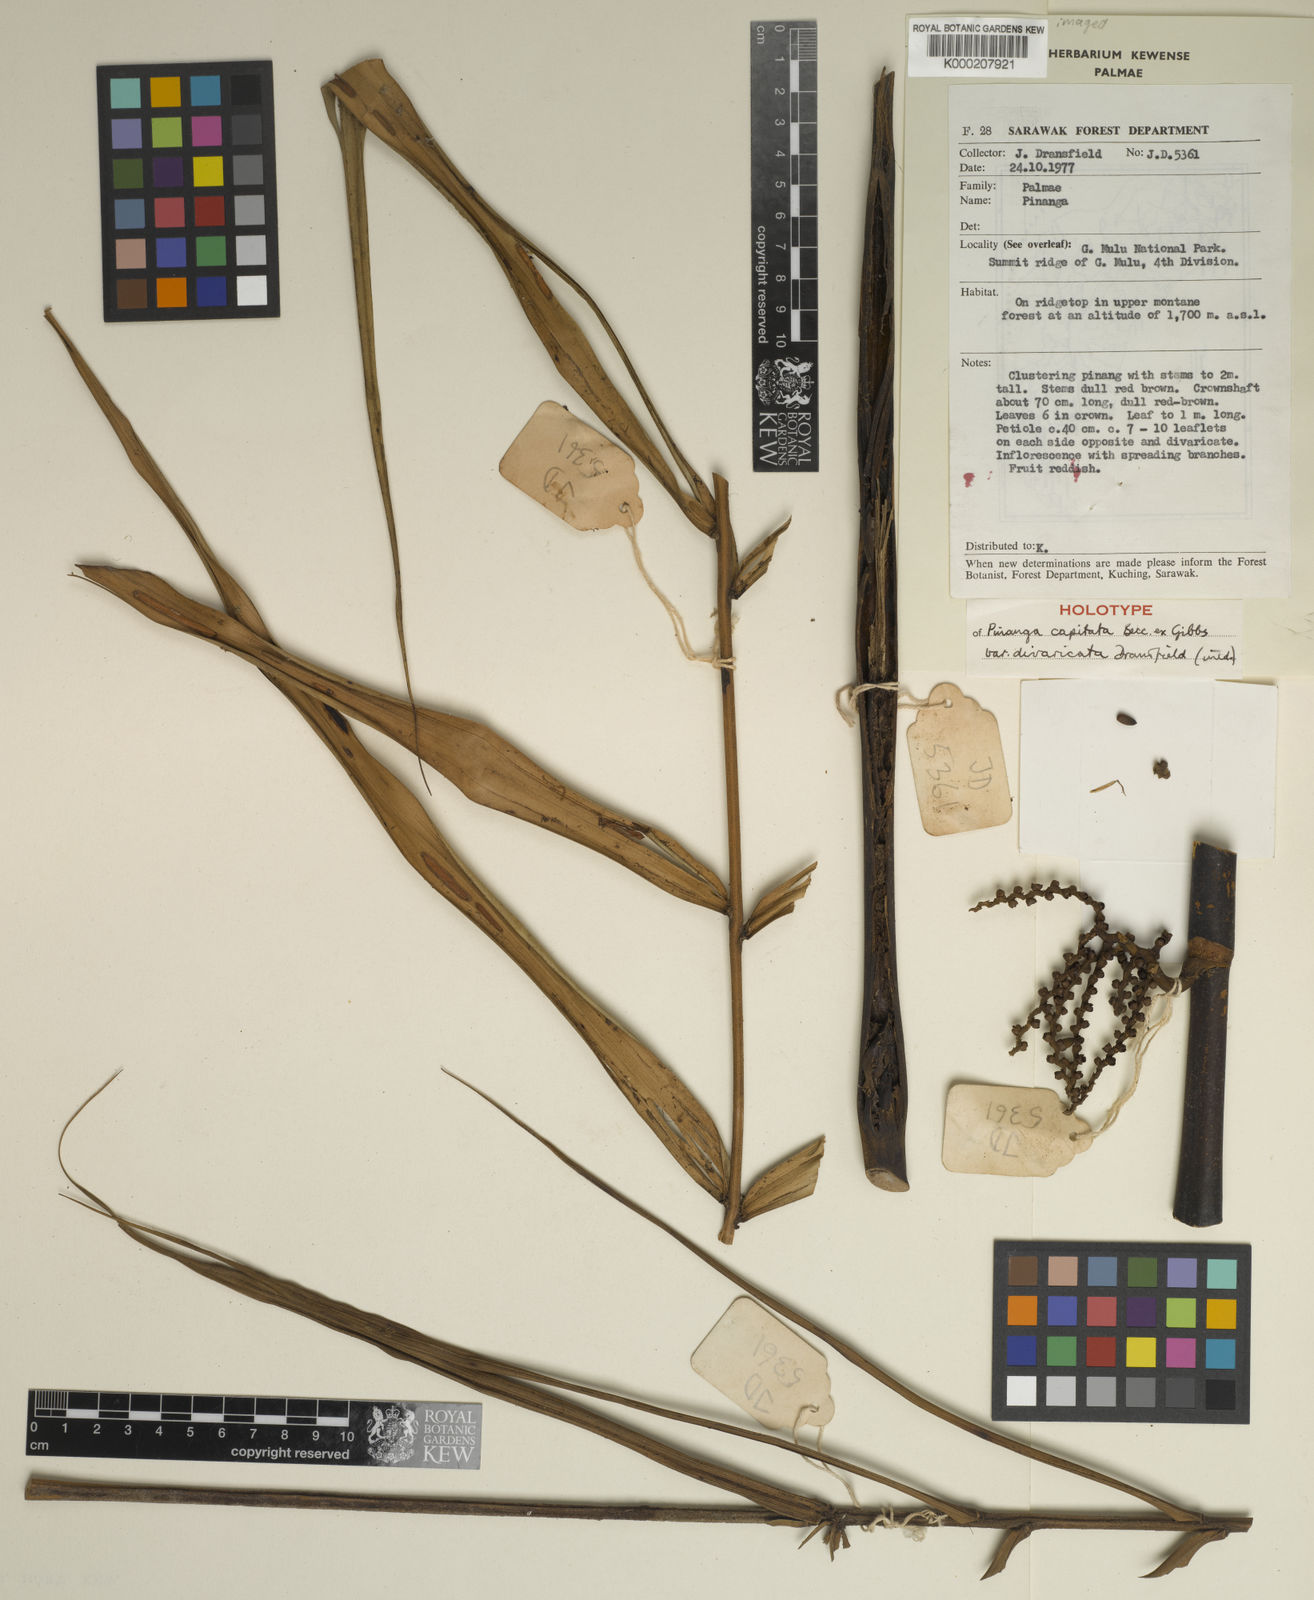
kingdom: Plantae
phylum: Tracheophyta
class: Liliopsida
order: Arecales
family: Arecaceae
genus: Pinanga
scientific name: Pinanga capitata
